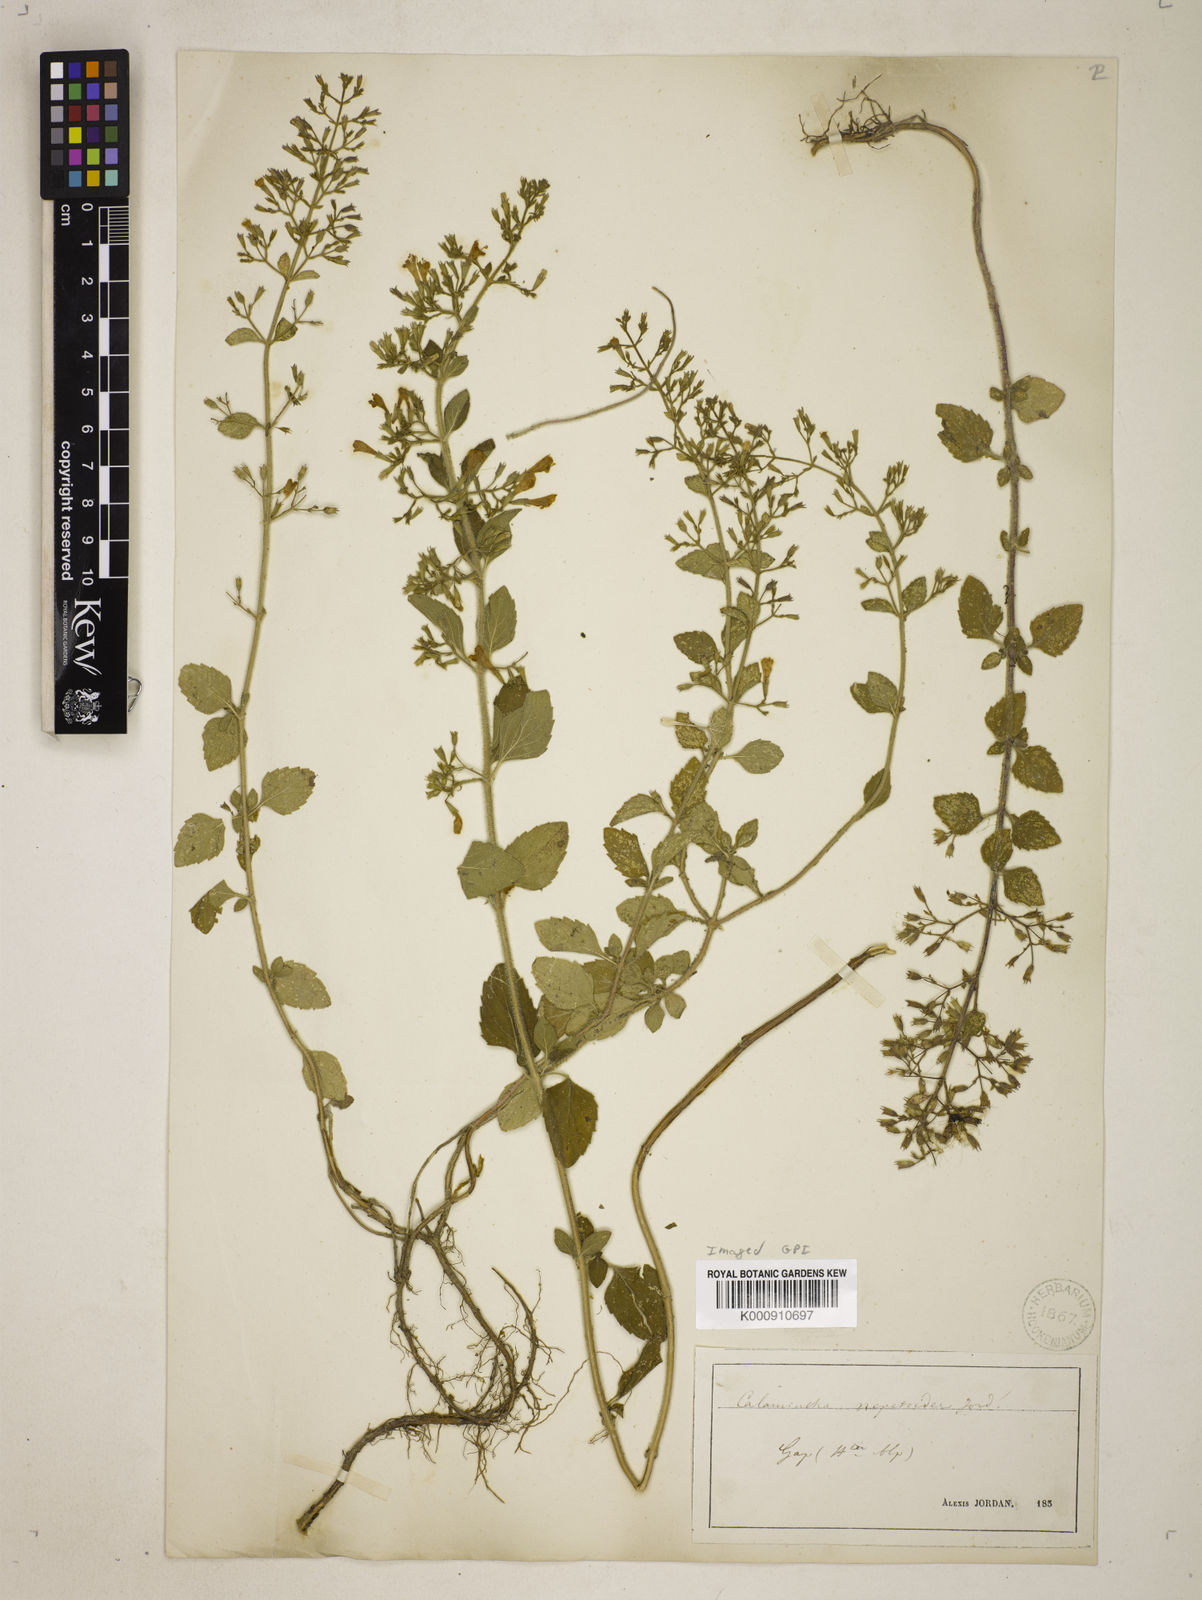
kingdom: Plantae
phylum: Tracheophyta
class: Magnoliopsida
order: Lamiales
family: Lamiaceae
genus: Clinopodium
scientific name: Clinopodium nepeta
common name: Lesser calamint
